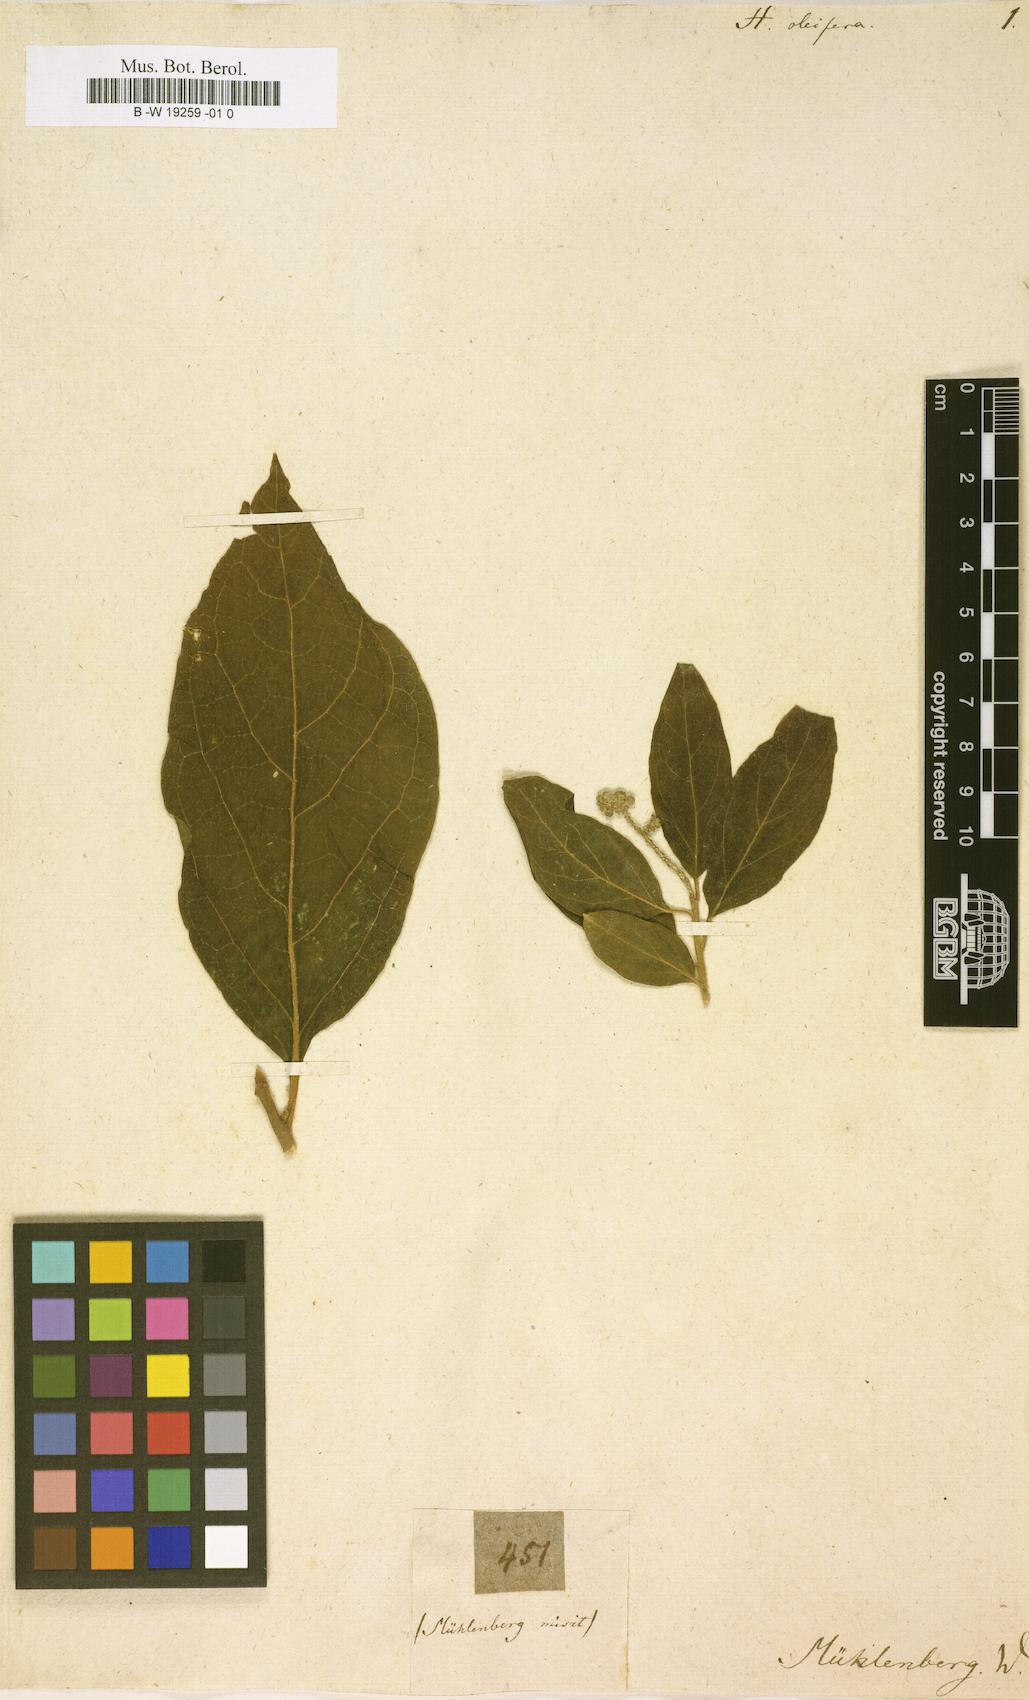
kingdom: Plantae
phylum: Tracheophyta
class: Magnoliopsida
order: Santalales
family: Cervantesiaceae
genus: Pyrularia
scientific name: Pyrularia pubera
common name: Oilnut
